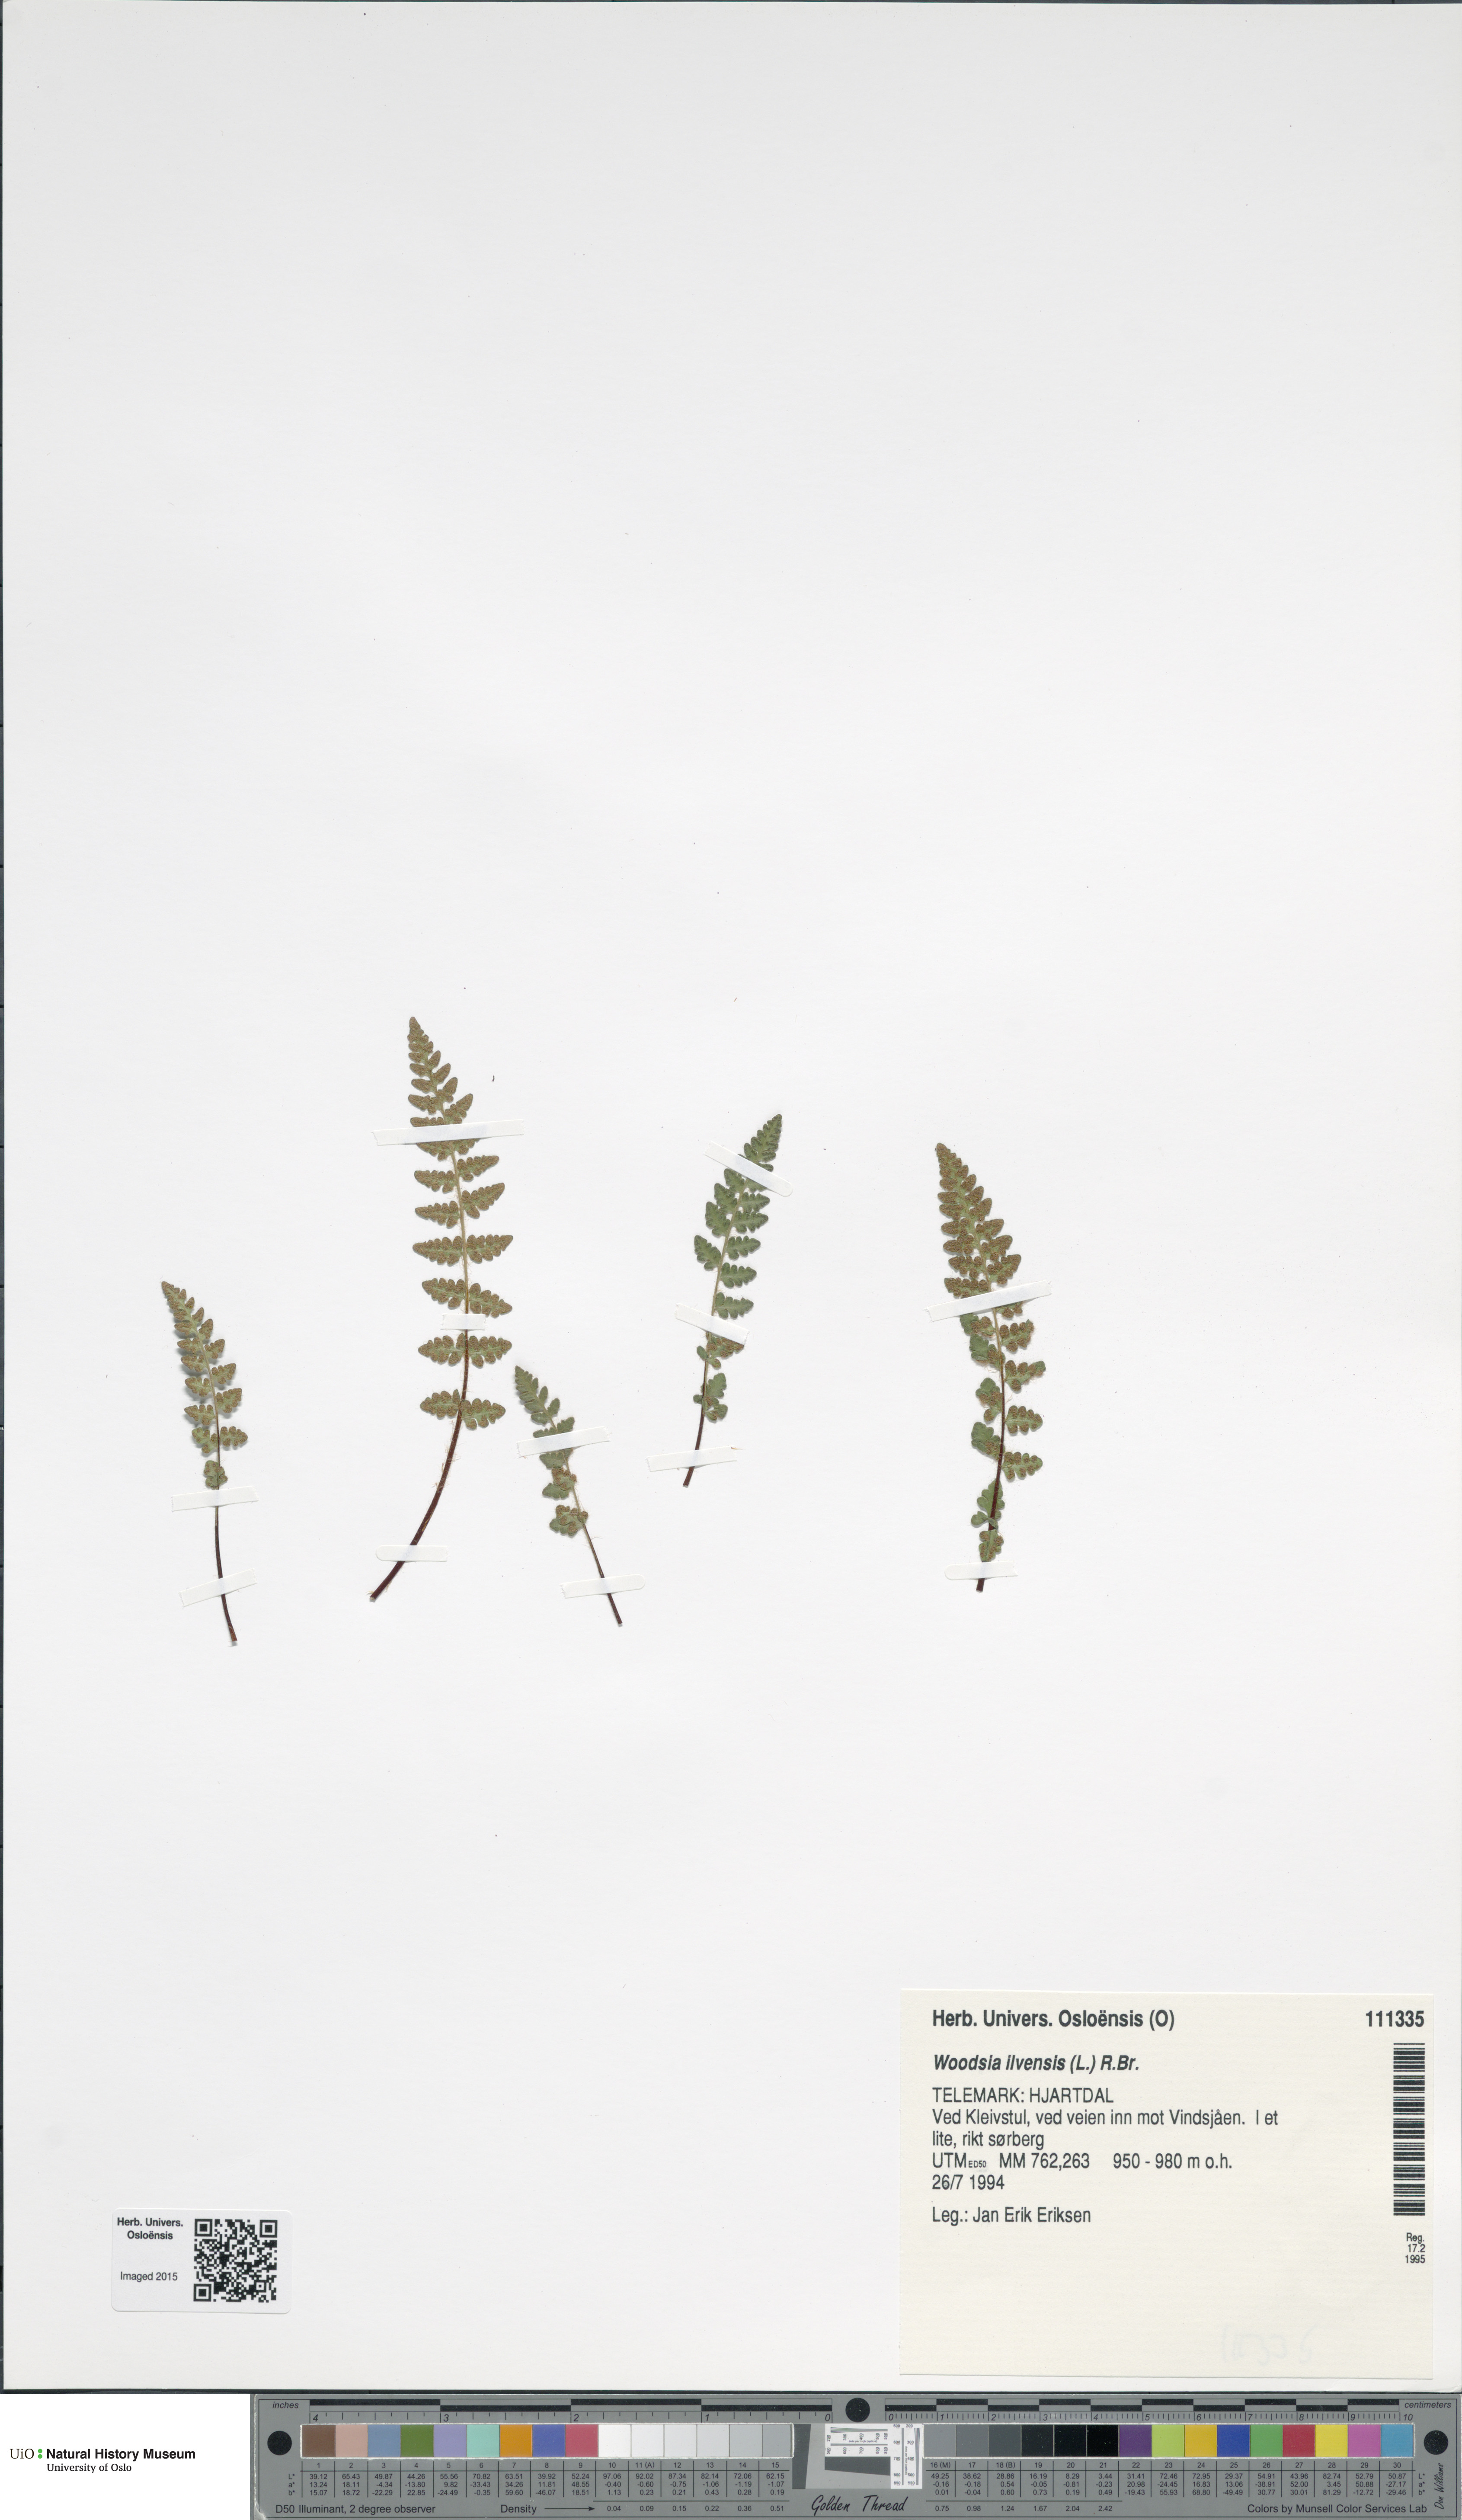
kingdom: Plantae
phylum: Tracheophyta
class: Polypodiopsida
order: Polypodiales
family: Woodsiaceae
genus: Woodsia
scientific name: Woodsia ilvensis
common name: Fragrant woodsia
